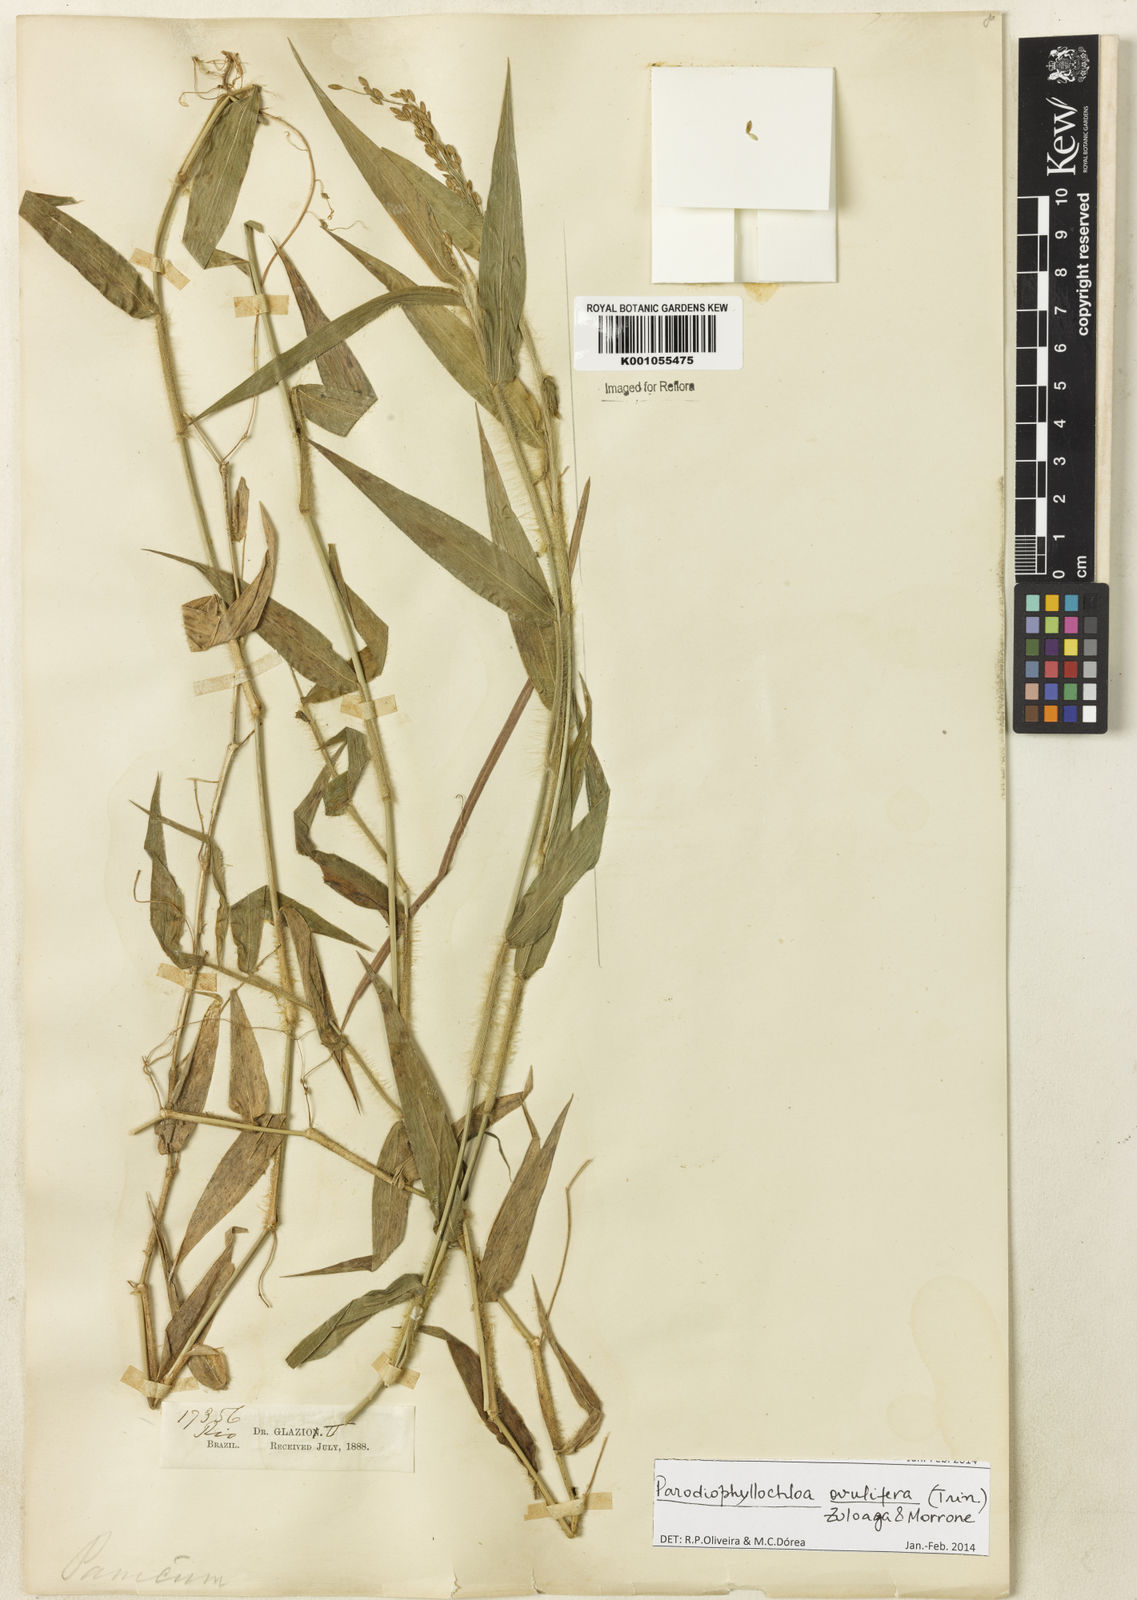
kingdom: Plantae
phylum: Tracheophyta
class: Liliopsida
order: Poales
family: Poaceae
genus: Parodiophyllochloa
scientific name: Parodiophyllochloa ovulifera
